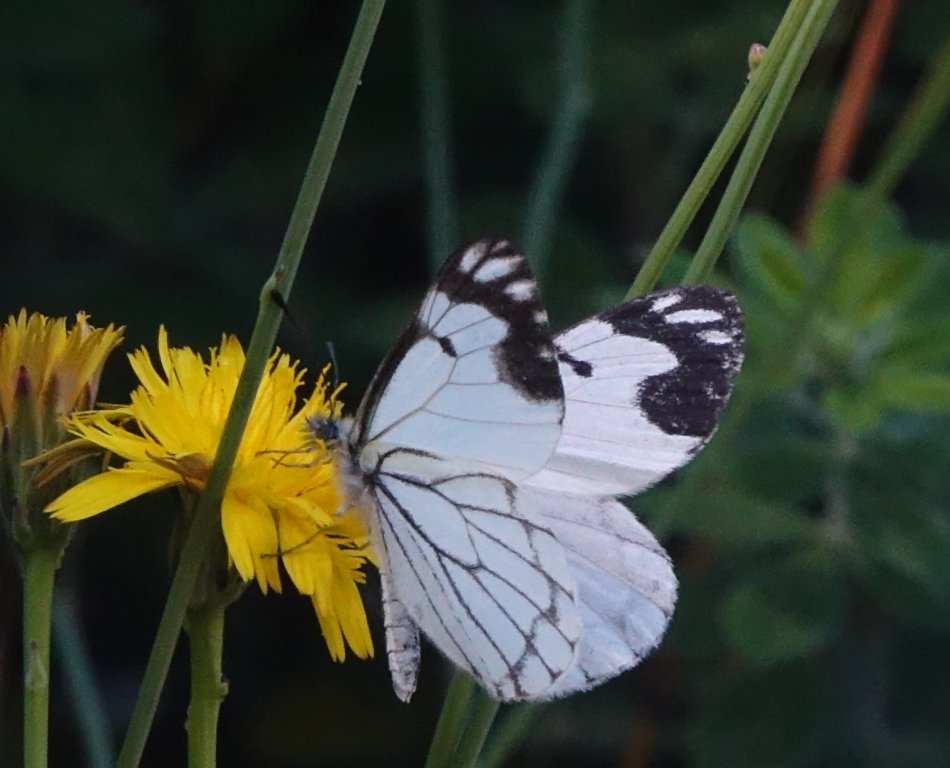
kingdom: Animalia
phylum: Arthropoda
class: Insecta
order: Lepidoptera
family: Pieridae
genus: Neophasia
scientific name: Neophasia menapia
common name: Pine White
